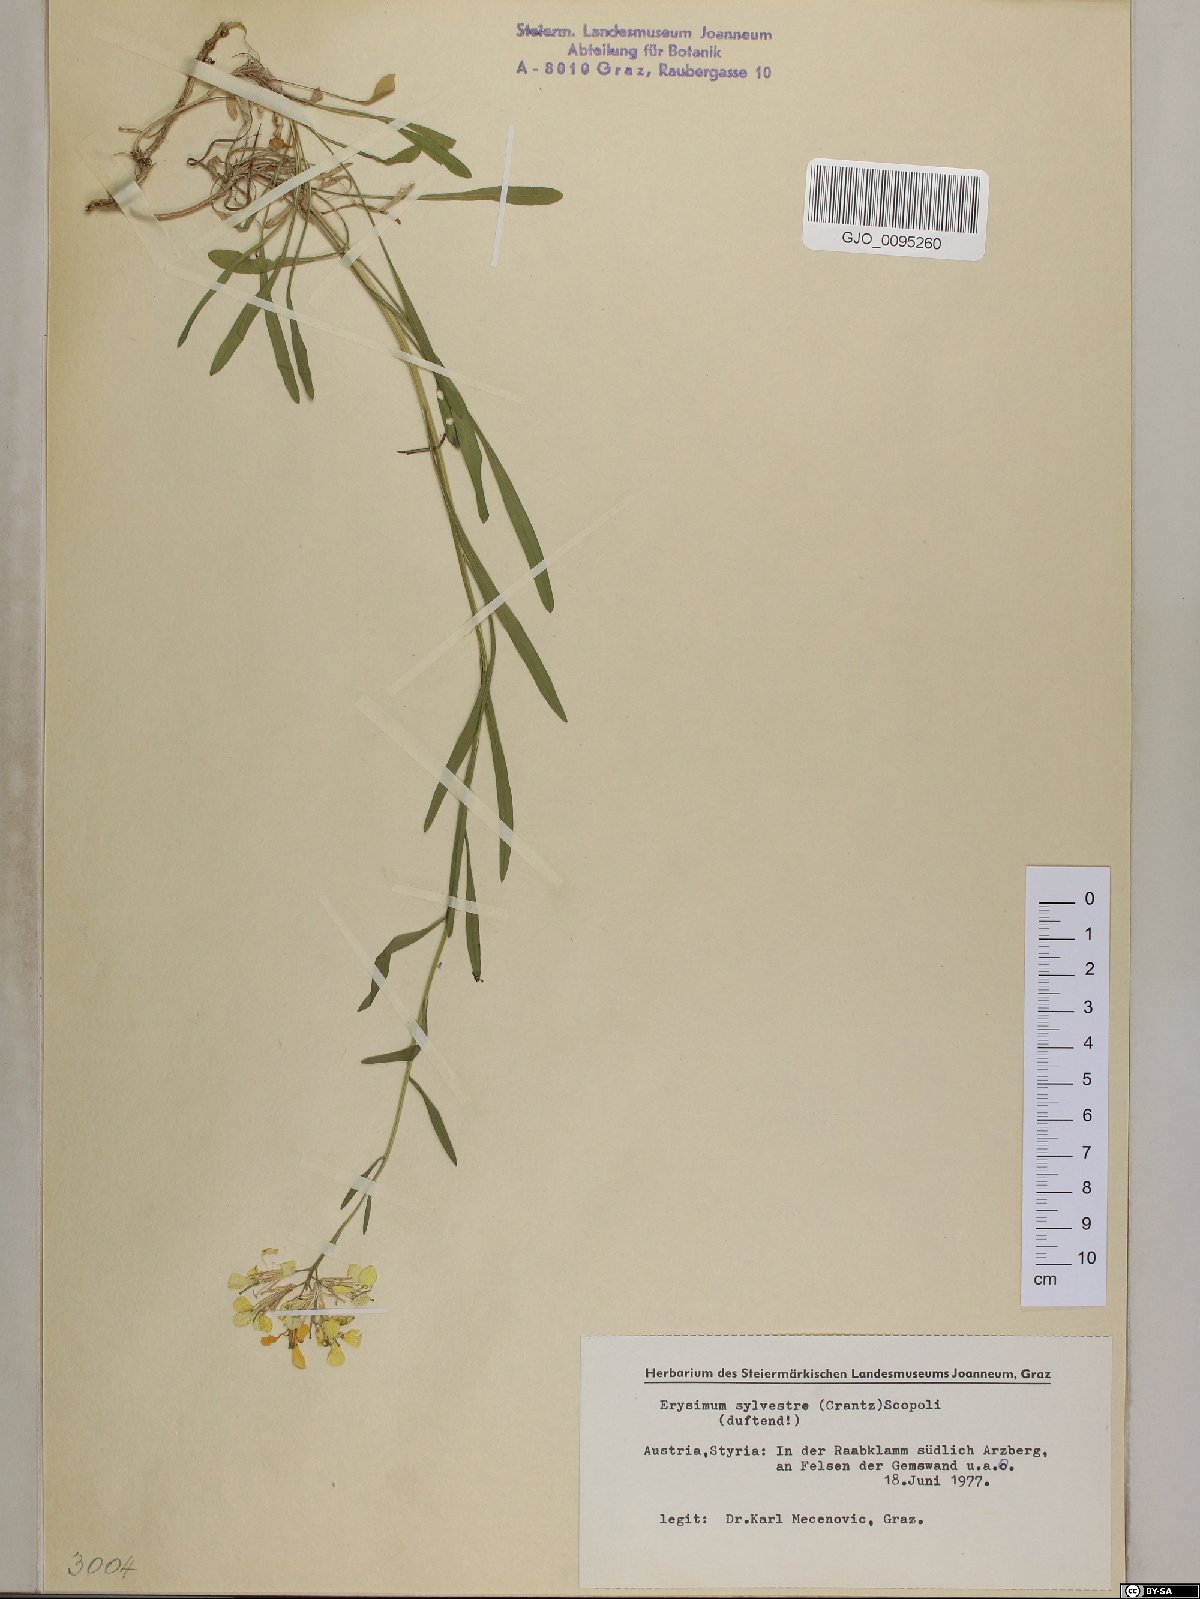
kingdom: Plantae
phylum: Tracheophyta
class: Magnoliopsida
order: Brassicales
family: Brassicaceae
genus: Erysimum
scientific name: Erysimum sylvestre
